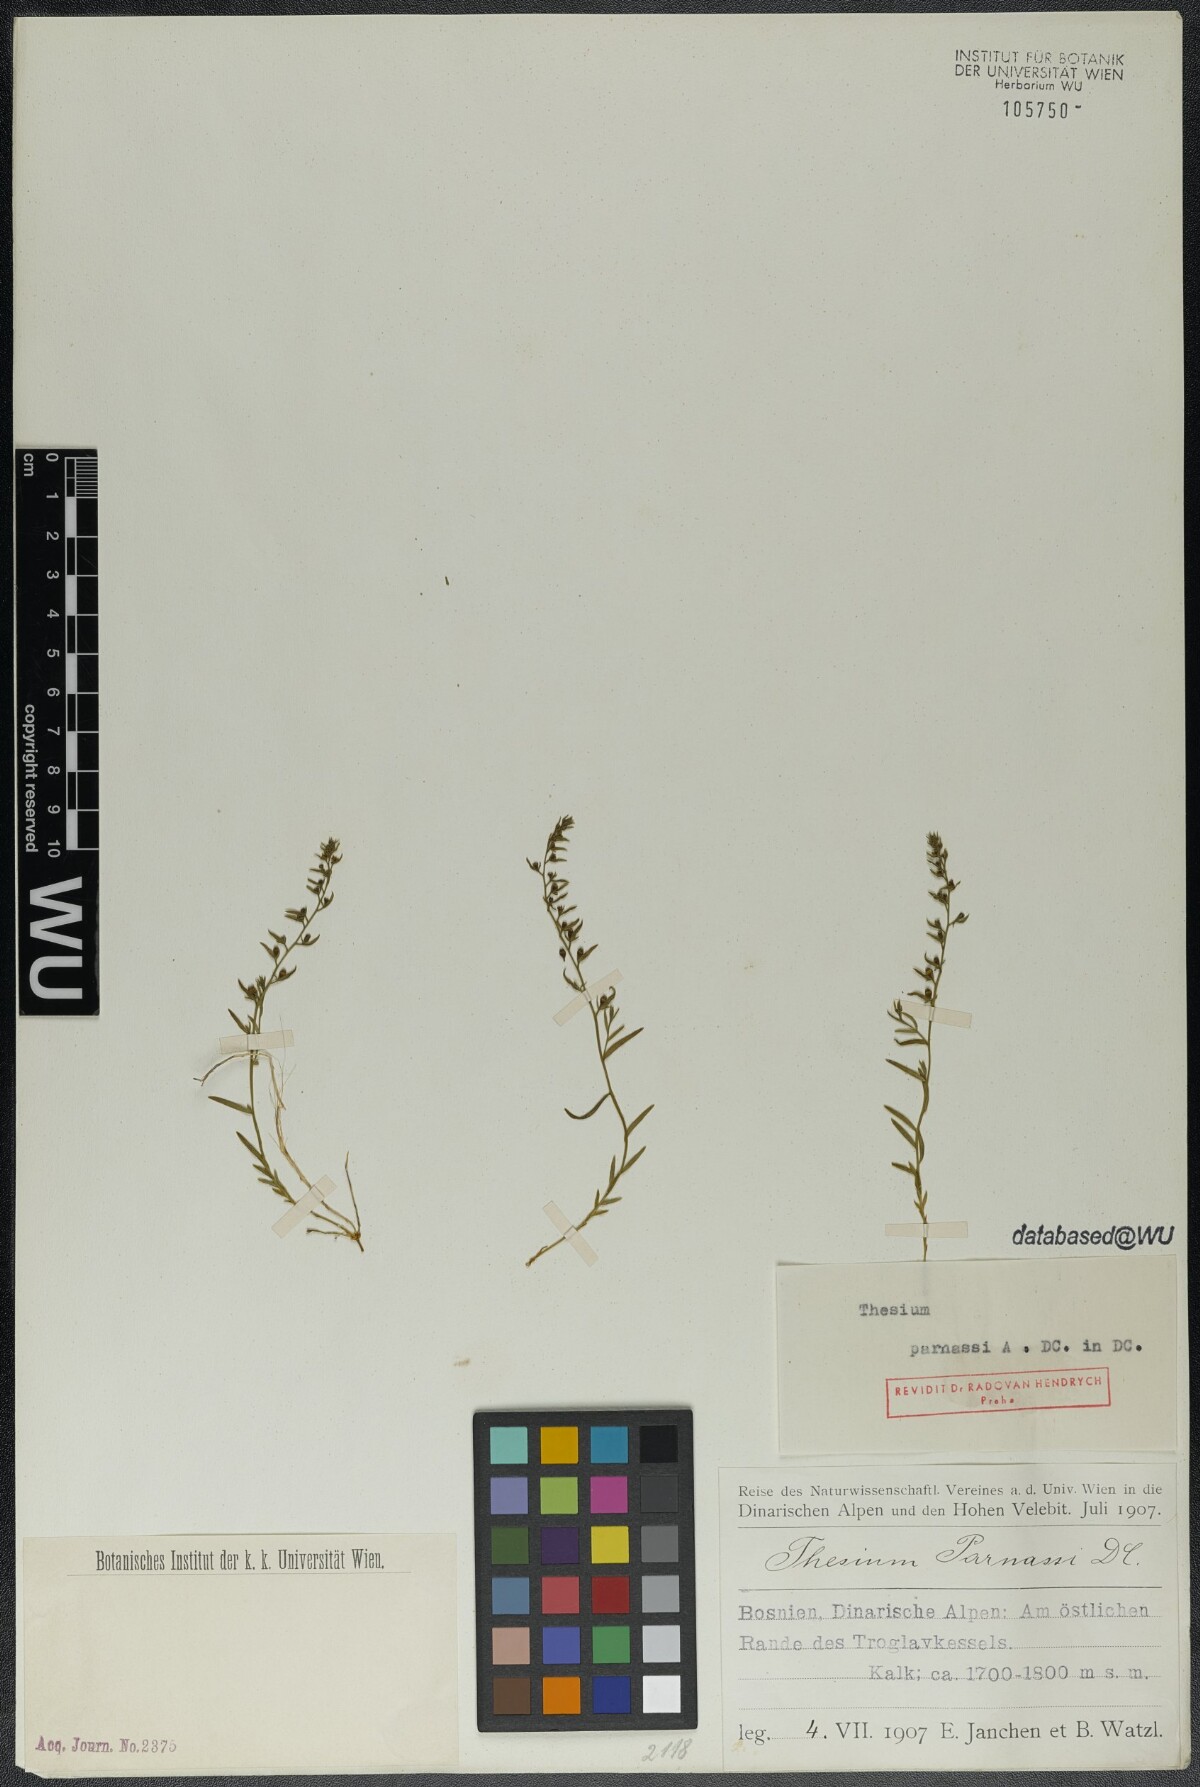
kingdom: Plantae
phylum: Tracheophyta
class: Magnoliopsida
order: Santalales
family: Thesiaceae
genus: Thesium
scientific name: Thesium parnassi
